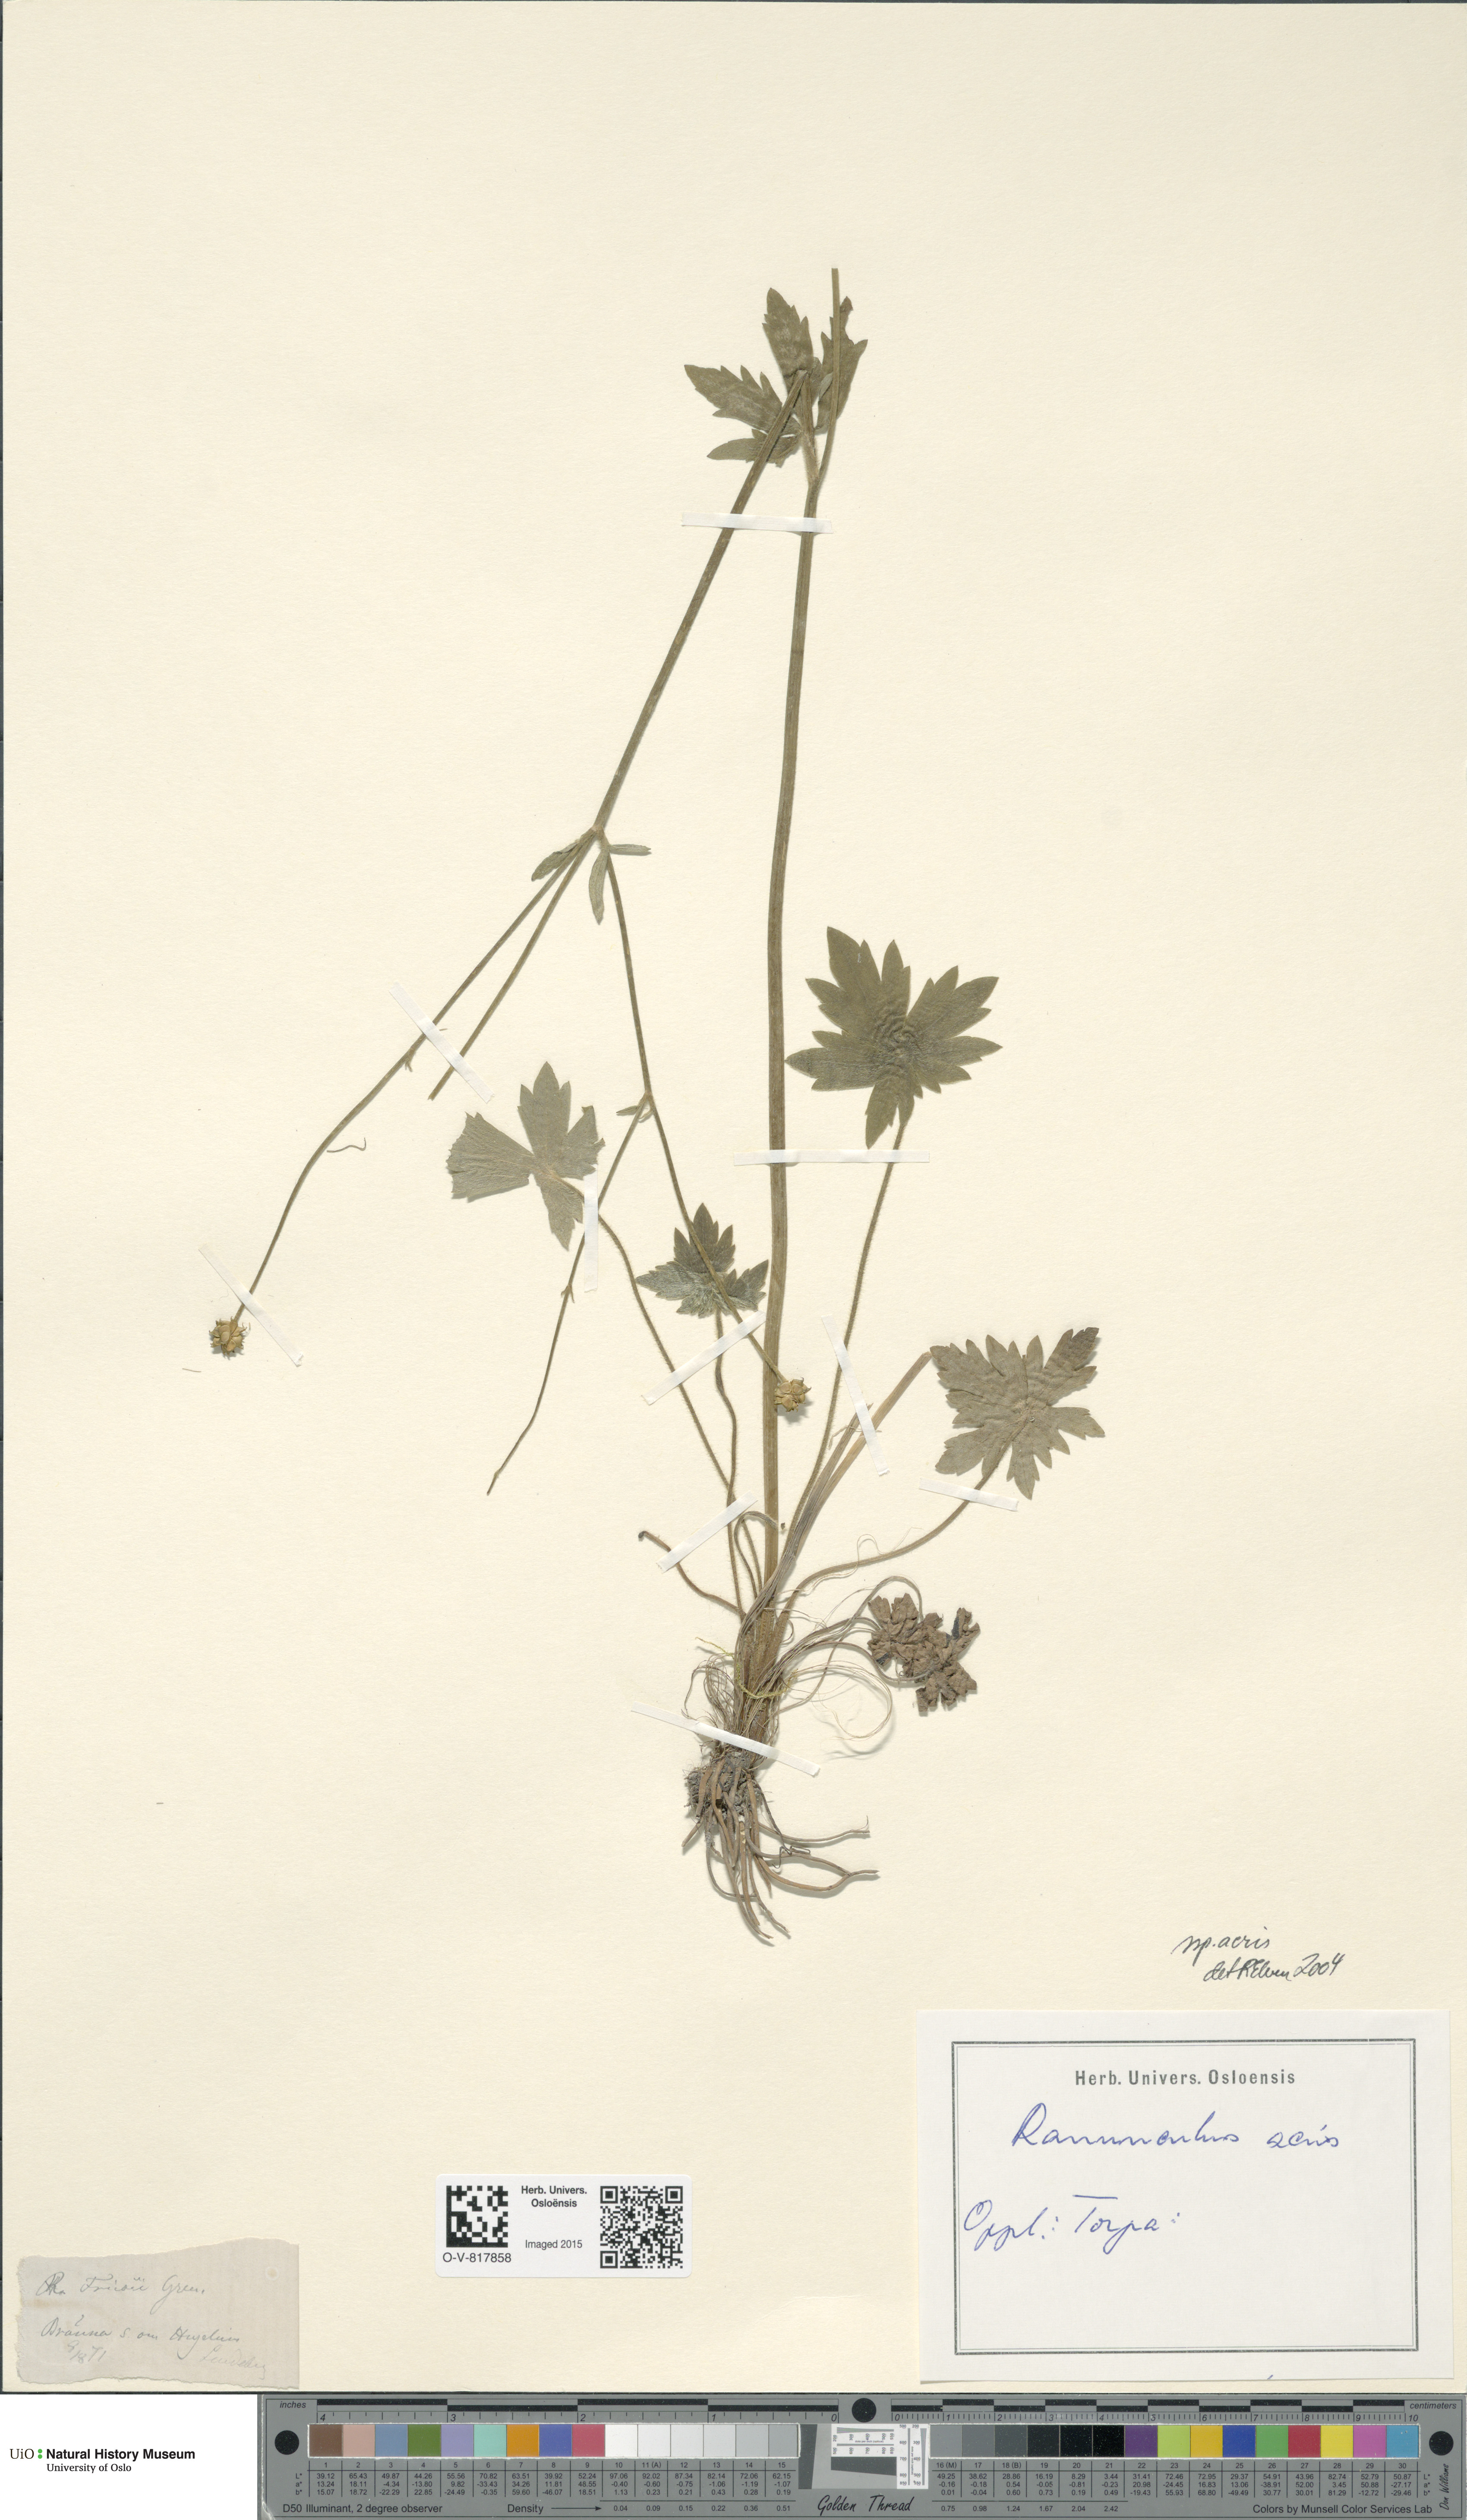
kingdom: Plantae
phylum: Tracheophyta
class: Magnoliopsida
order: Ranunculales
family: Ranunculaceae
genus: Ranunculus
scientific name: Ranunculus acris
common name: Meadow buttercup
